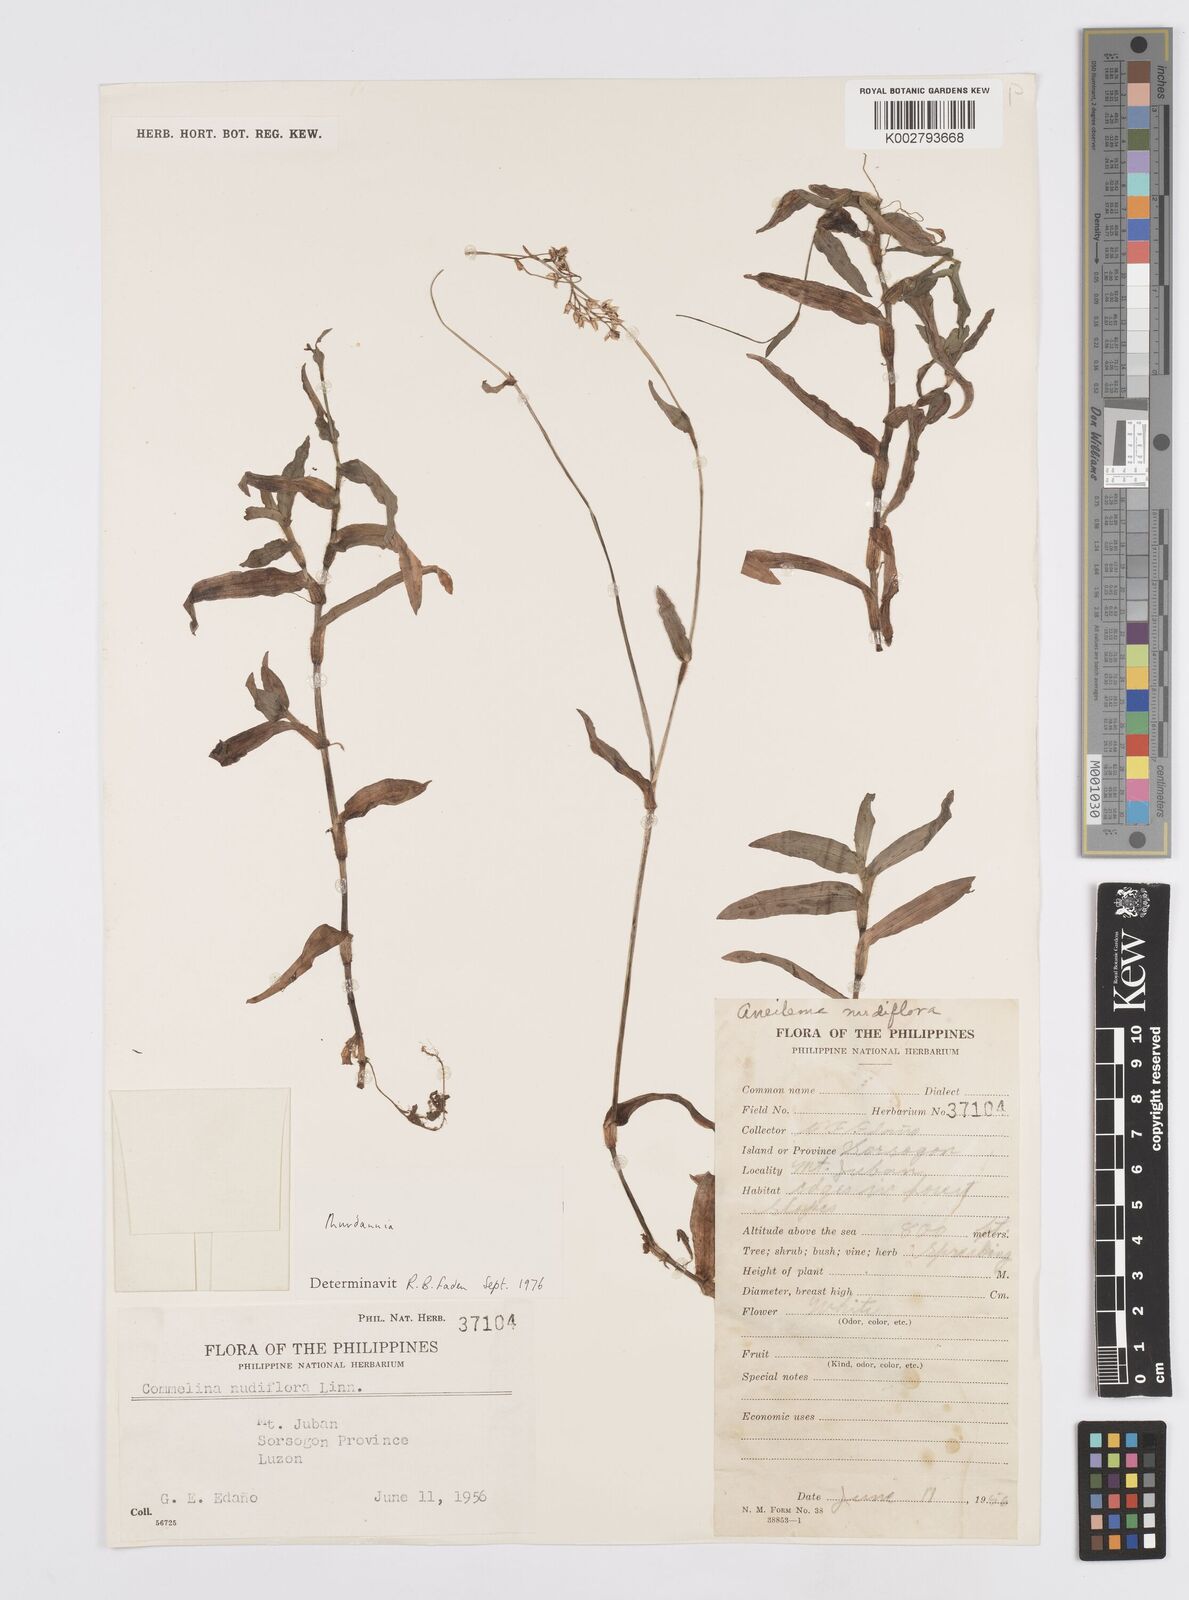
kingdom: Plantae
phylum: Tracheophyta
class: Liliopsida
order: Commelinales
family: Commelinaceae
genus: Murdannia
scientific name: Murdannia
